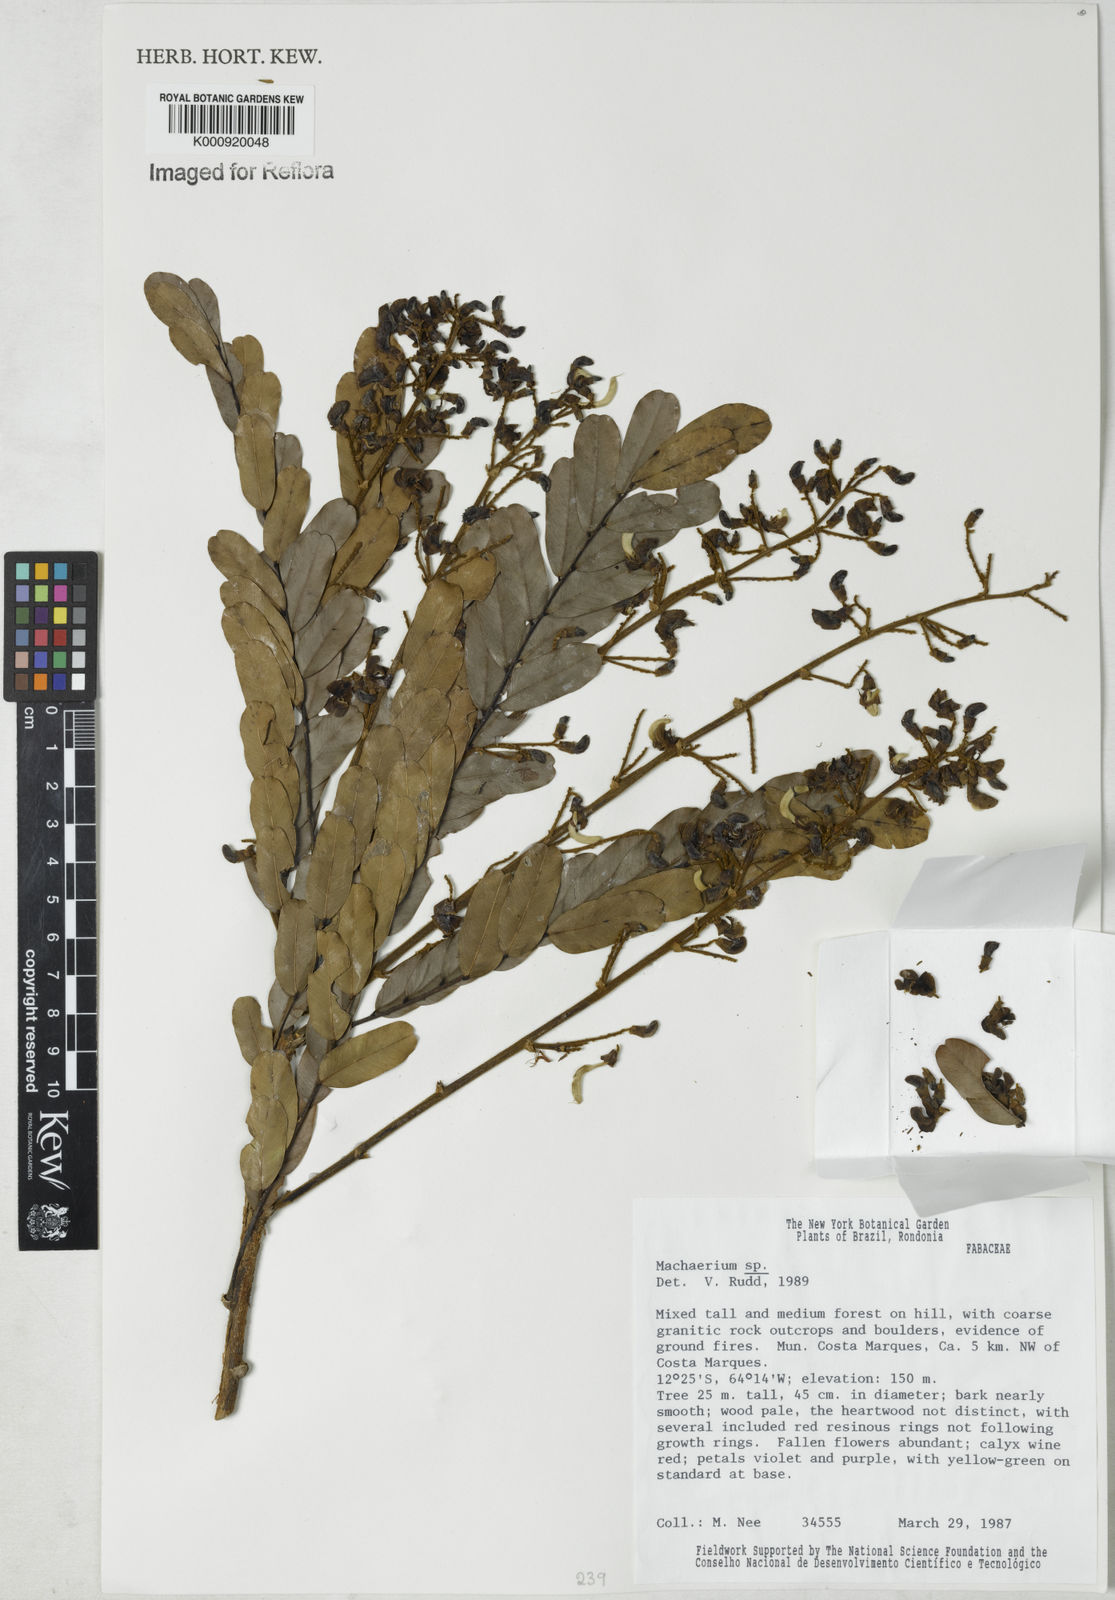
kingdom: Plantae
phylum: Tracheophyta
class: Magnoliopsida
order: Fabales
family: Fabaceae
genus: Machaerium
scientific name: Machaerium
